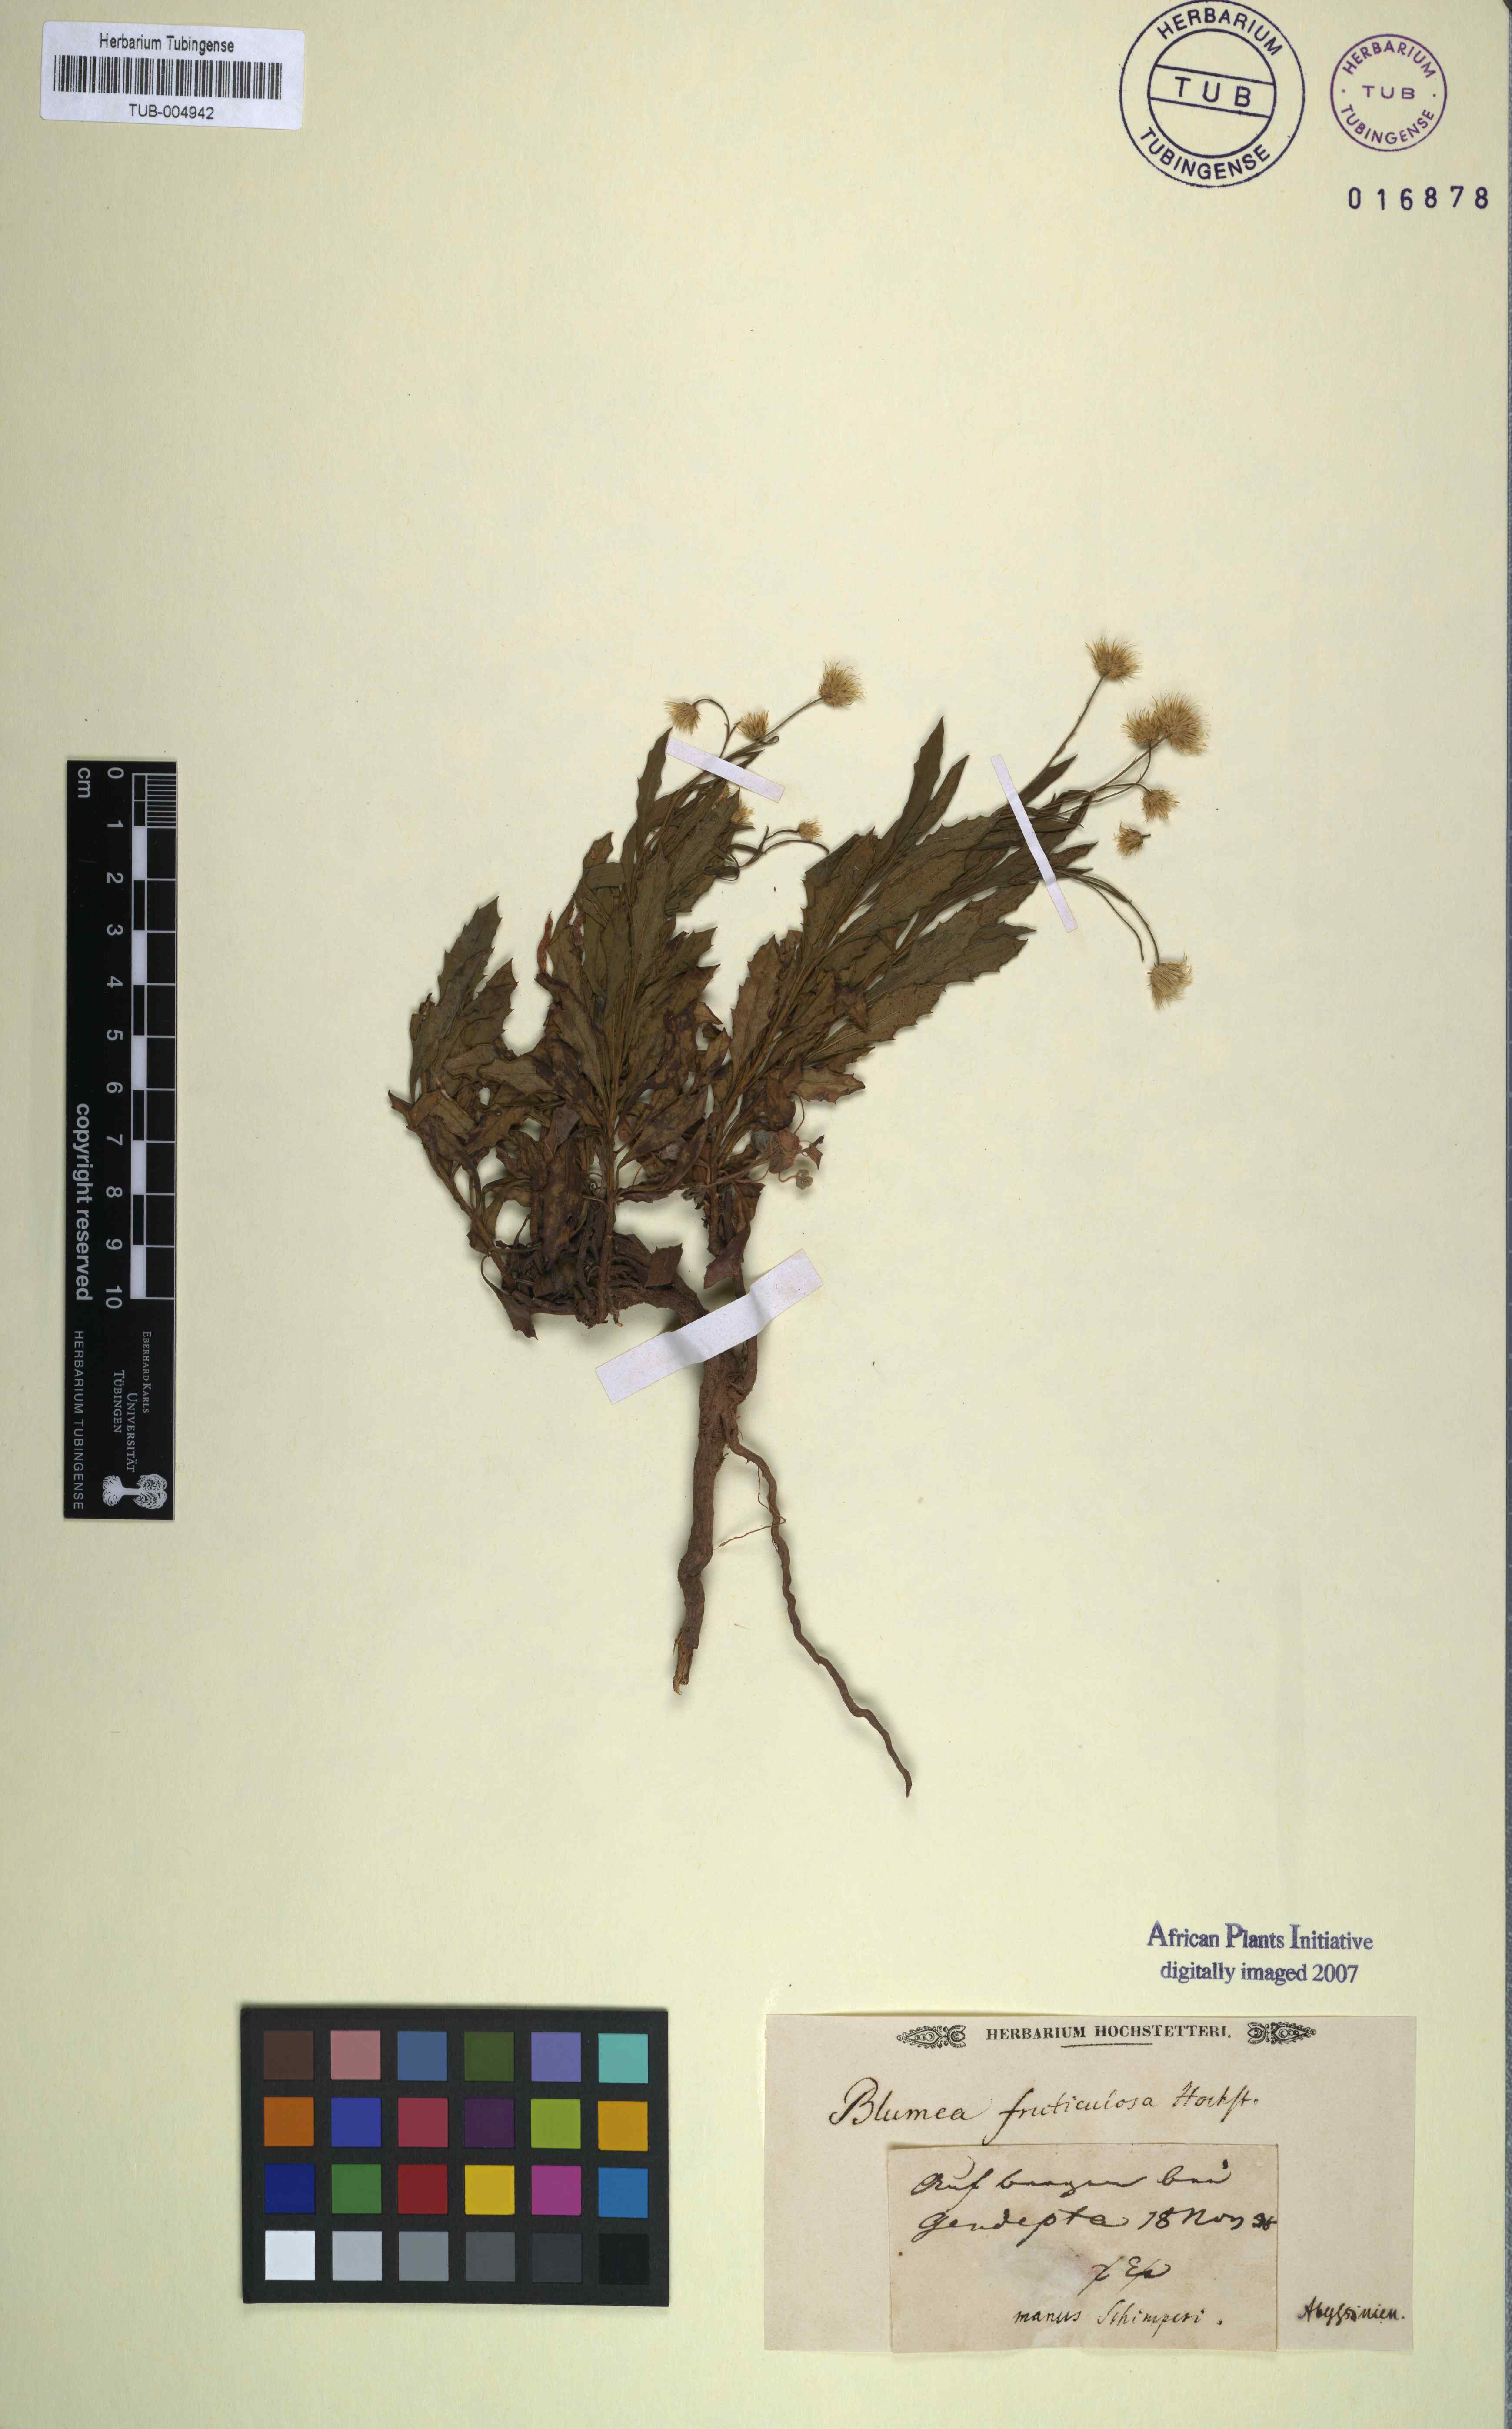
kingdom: Plantae
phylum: Tracheophyta
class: Magnoliopsida
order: Asterales
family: Asteraceae
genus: Phagnalon
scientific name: Phagnalon stenolepis
